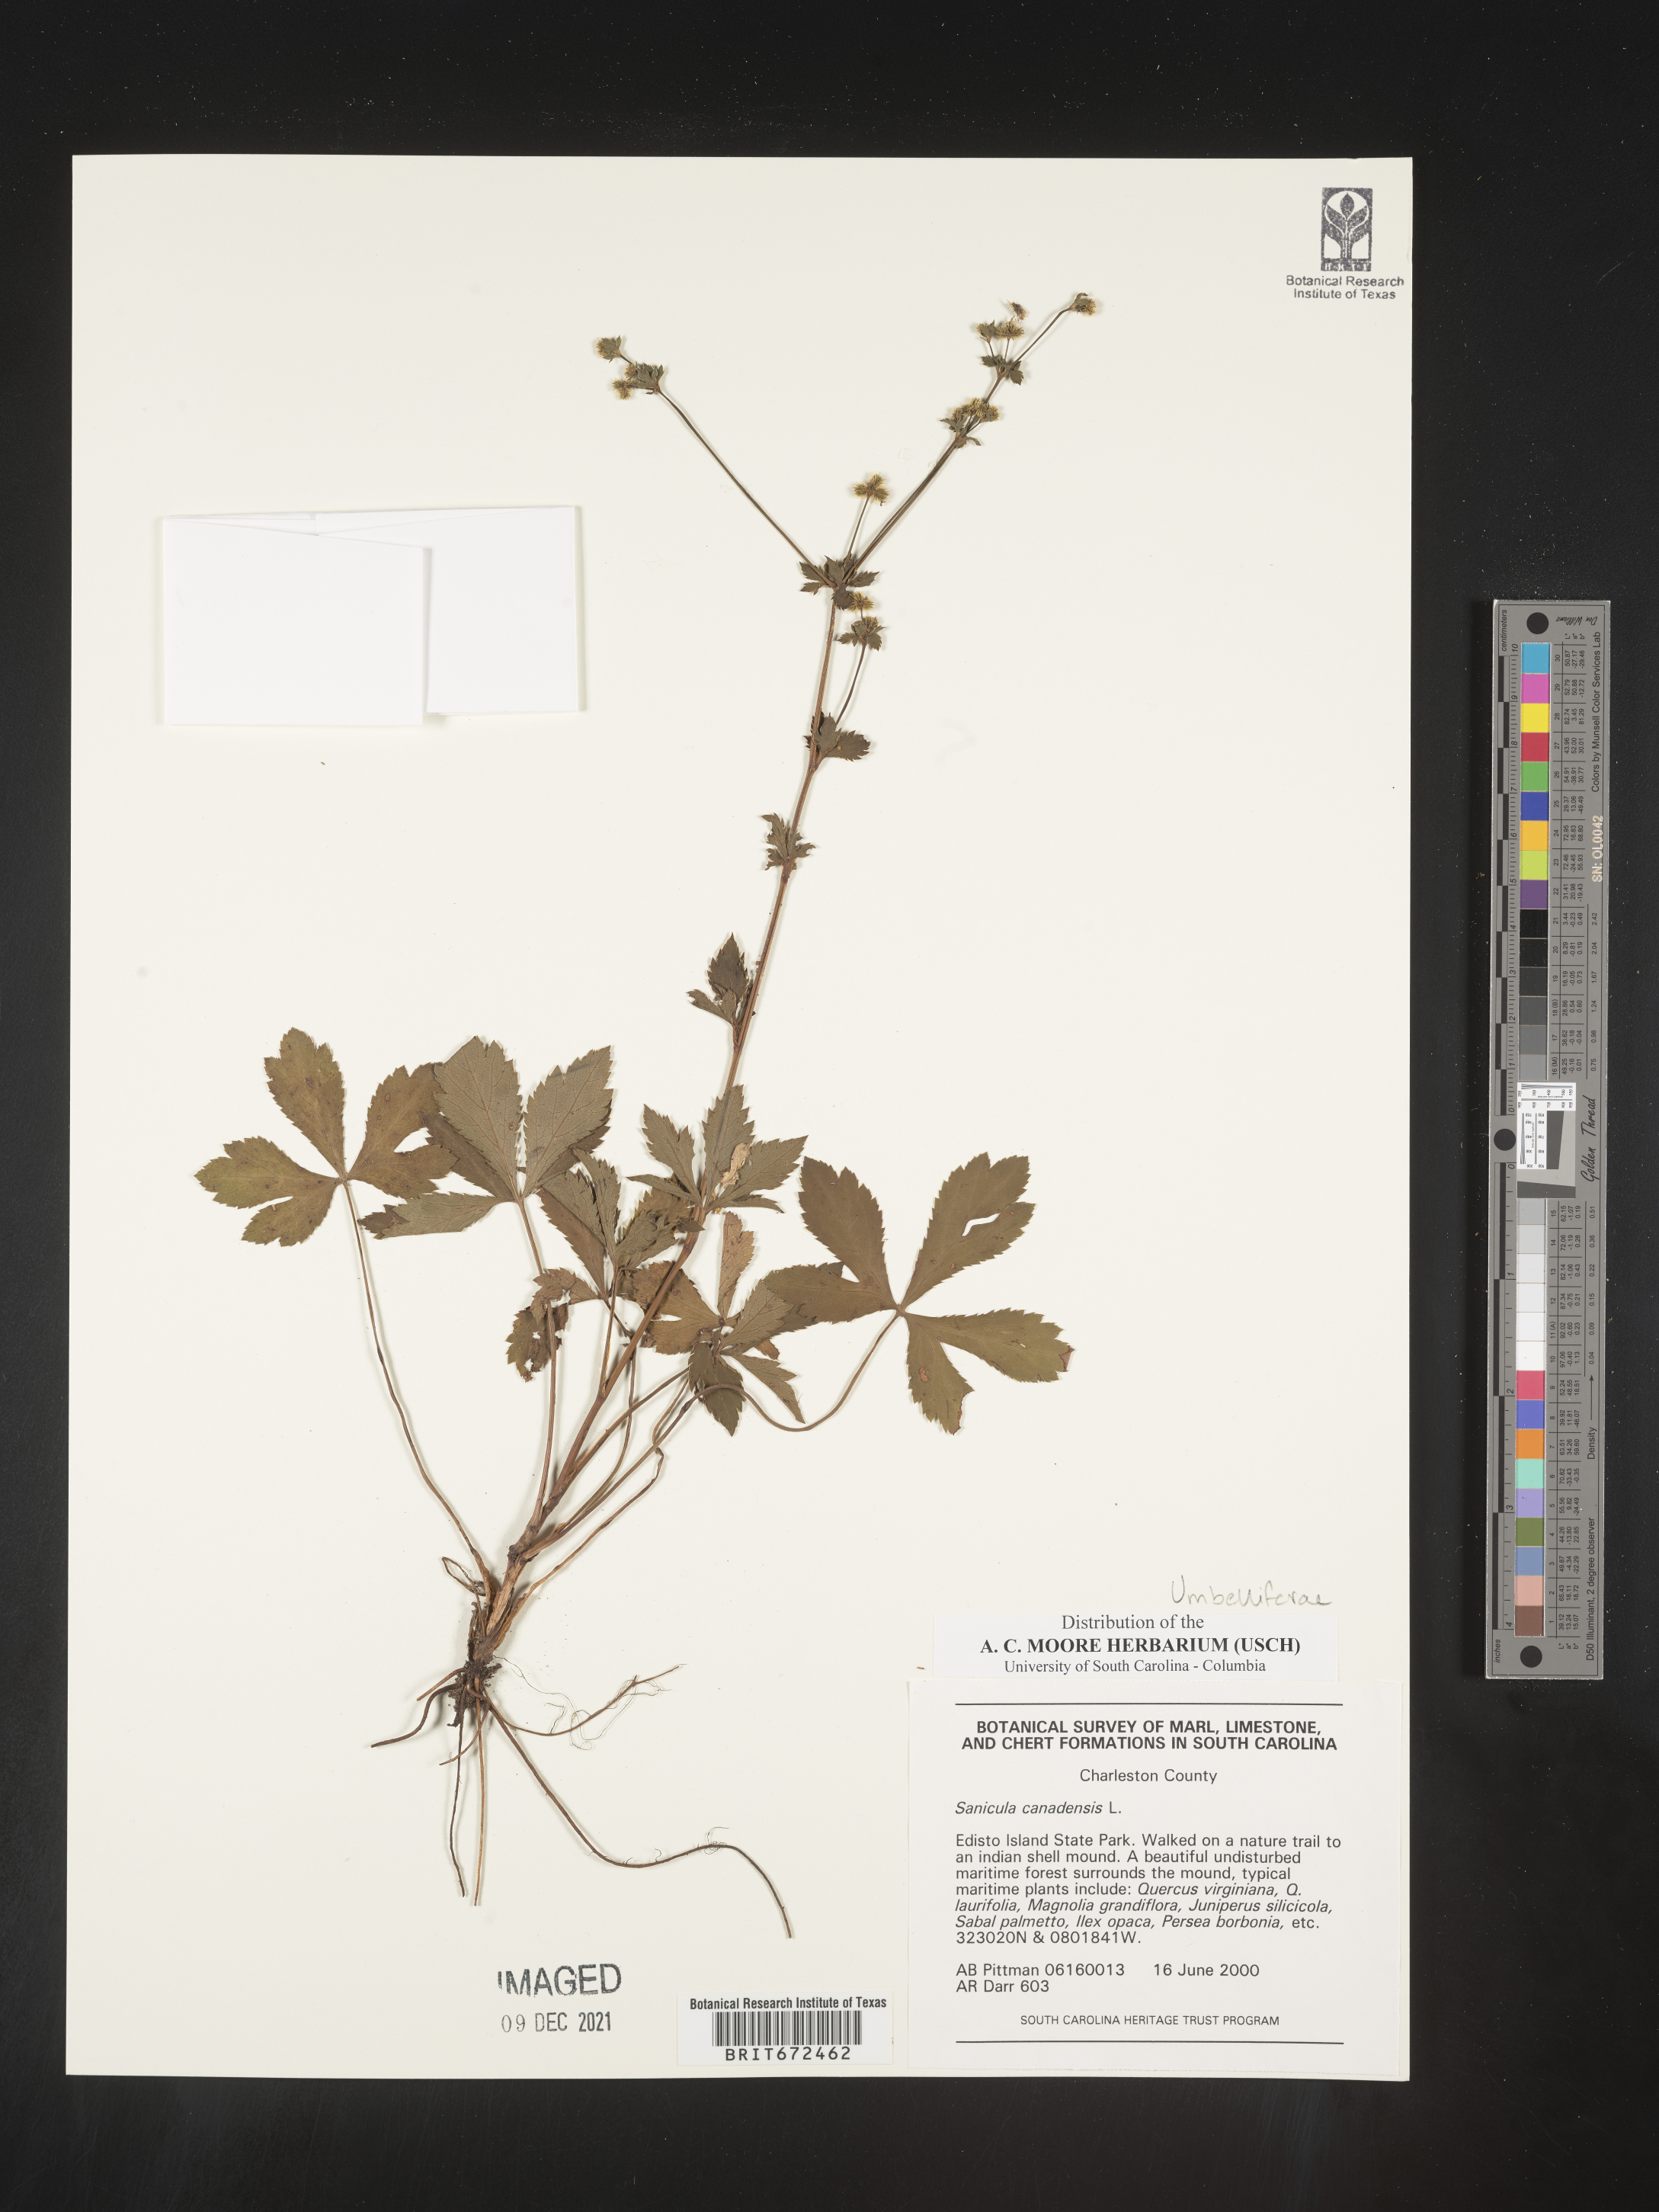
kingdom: Plantae
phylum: Tracheophyta
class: Magnoliopsida
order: Apiales
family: Apiaceae
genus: Sanicula
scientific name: Sanicula canadensis
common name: Canada sanicle
